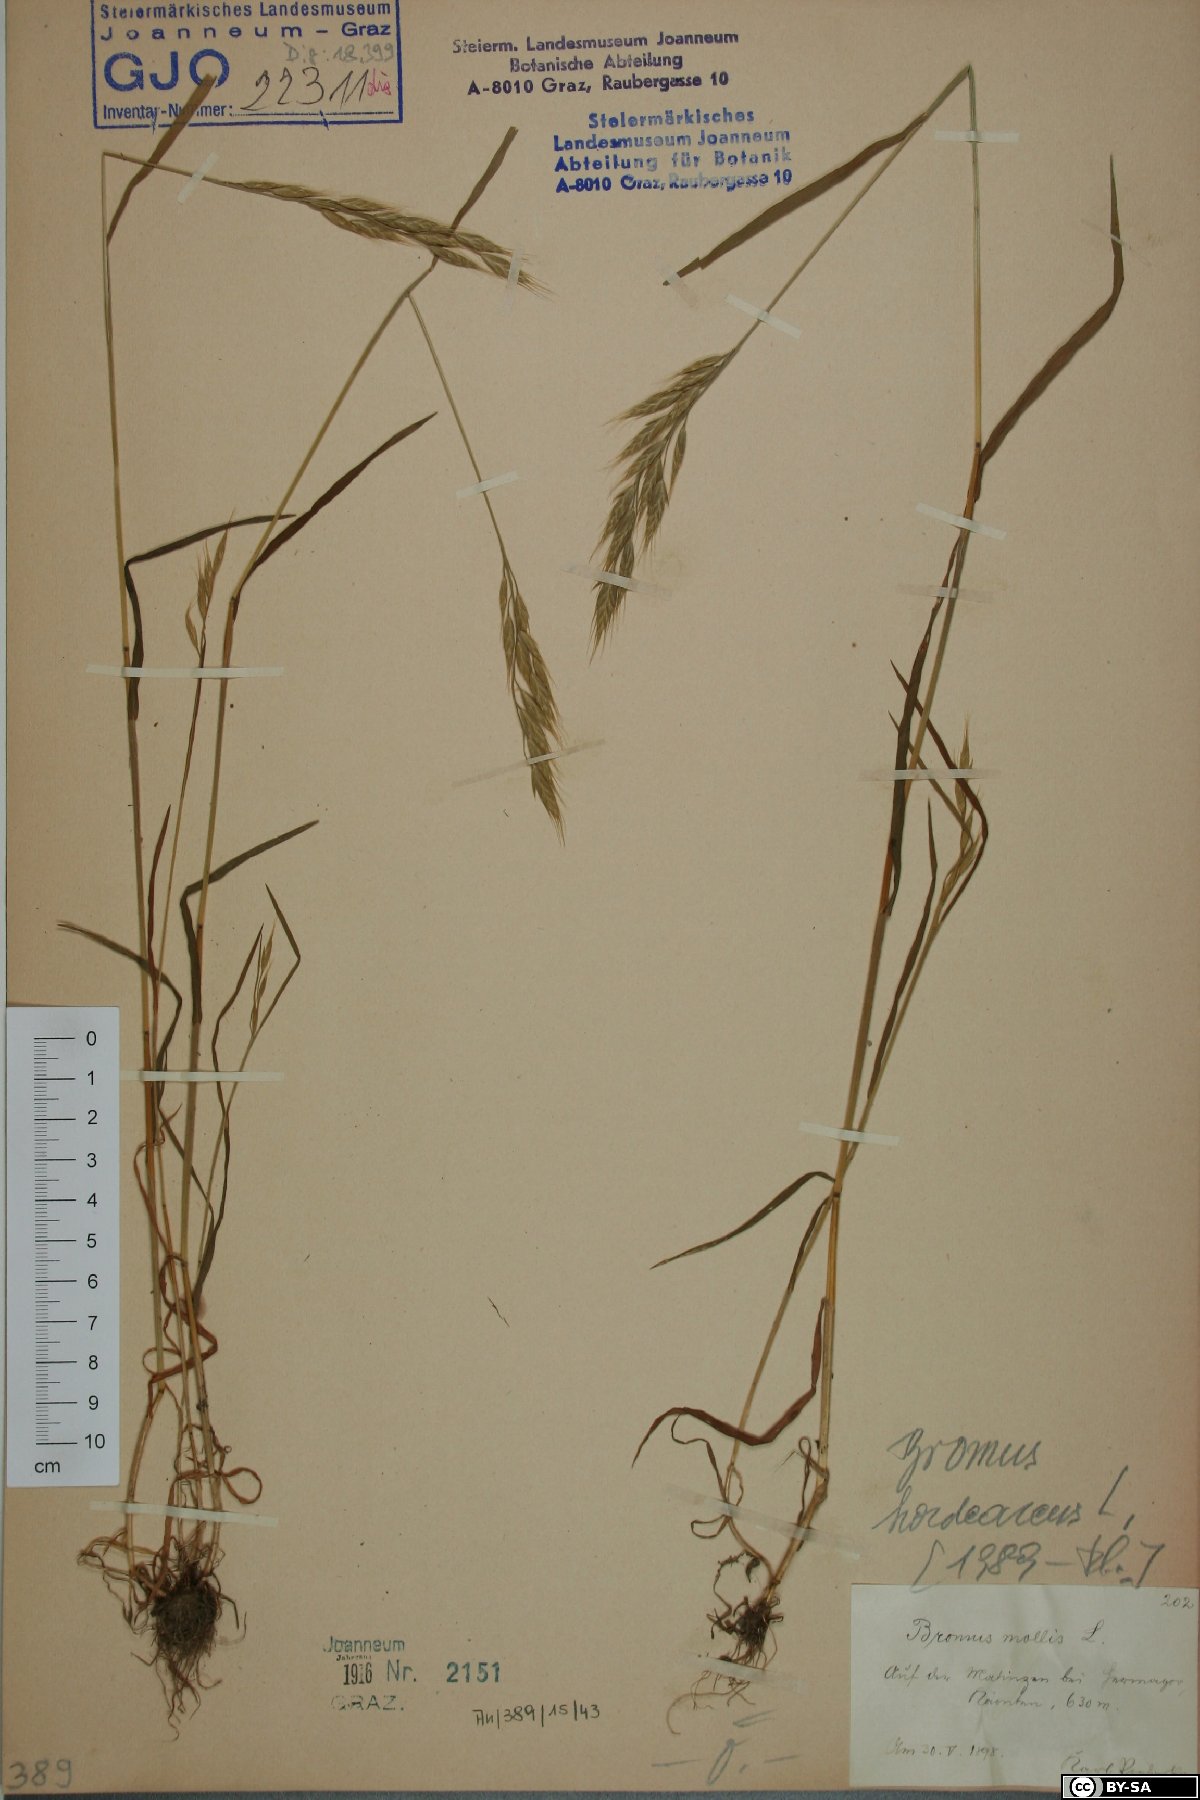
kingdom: Plantae
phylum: Tracheophyta
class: Liliopsida
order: Poales
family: Poaceae
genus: Bromus
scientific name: Bromus hordeaceus
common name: Soft brome
